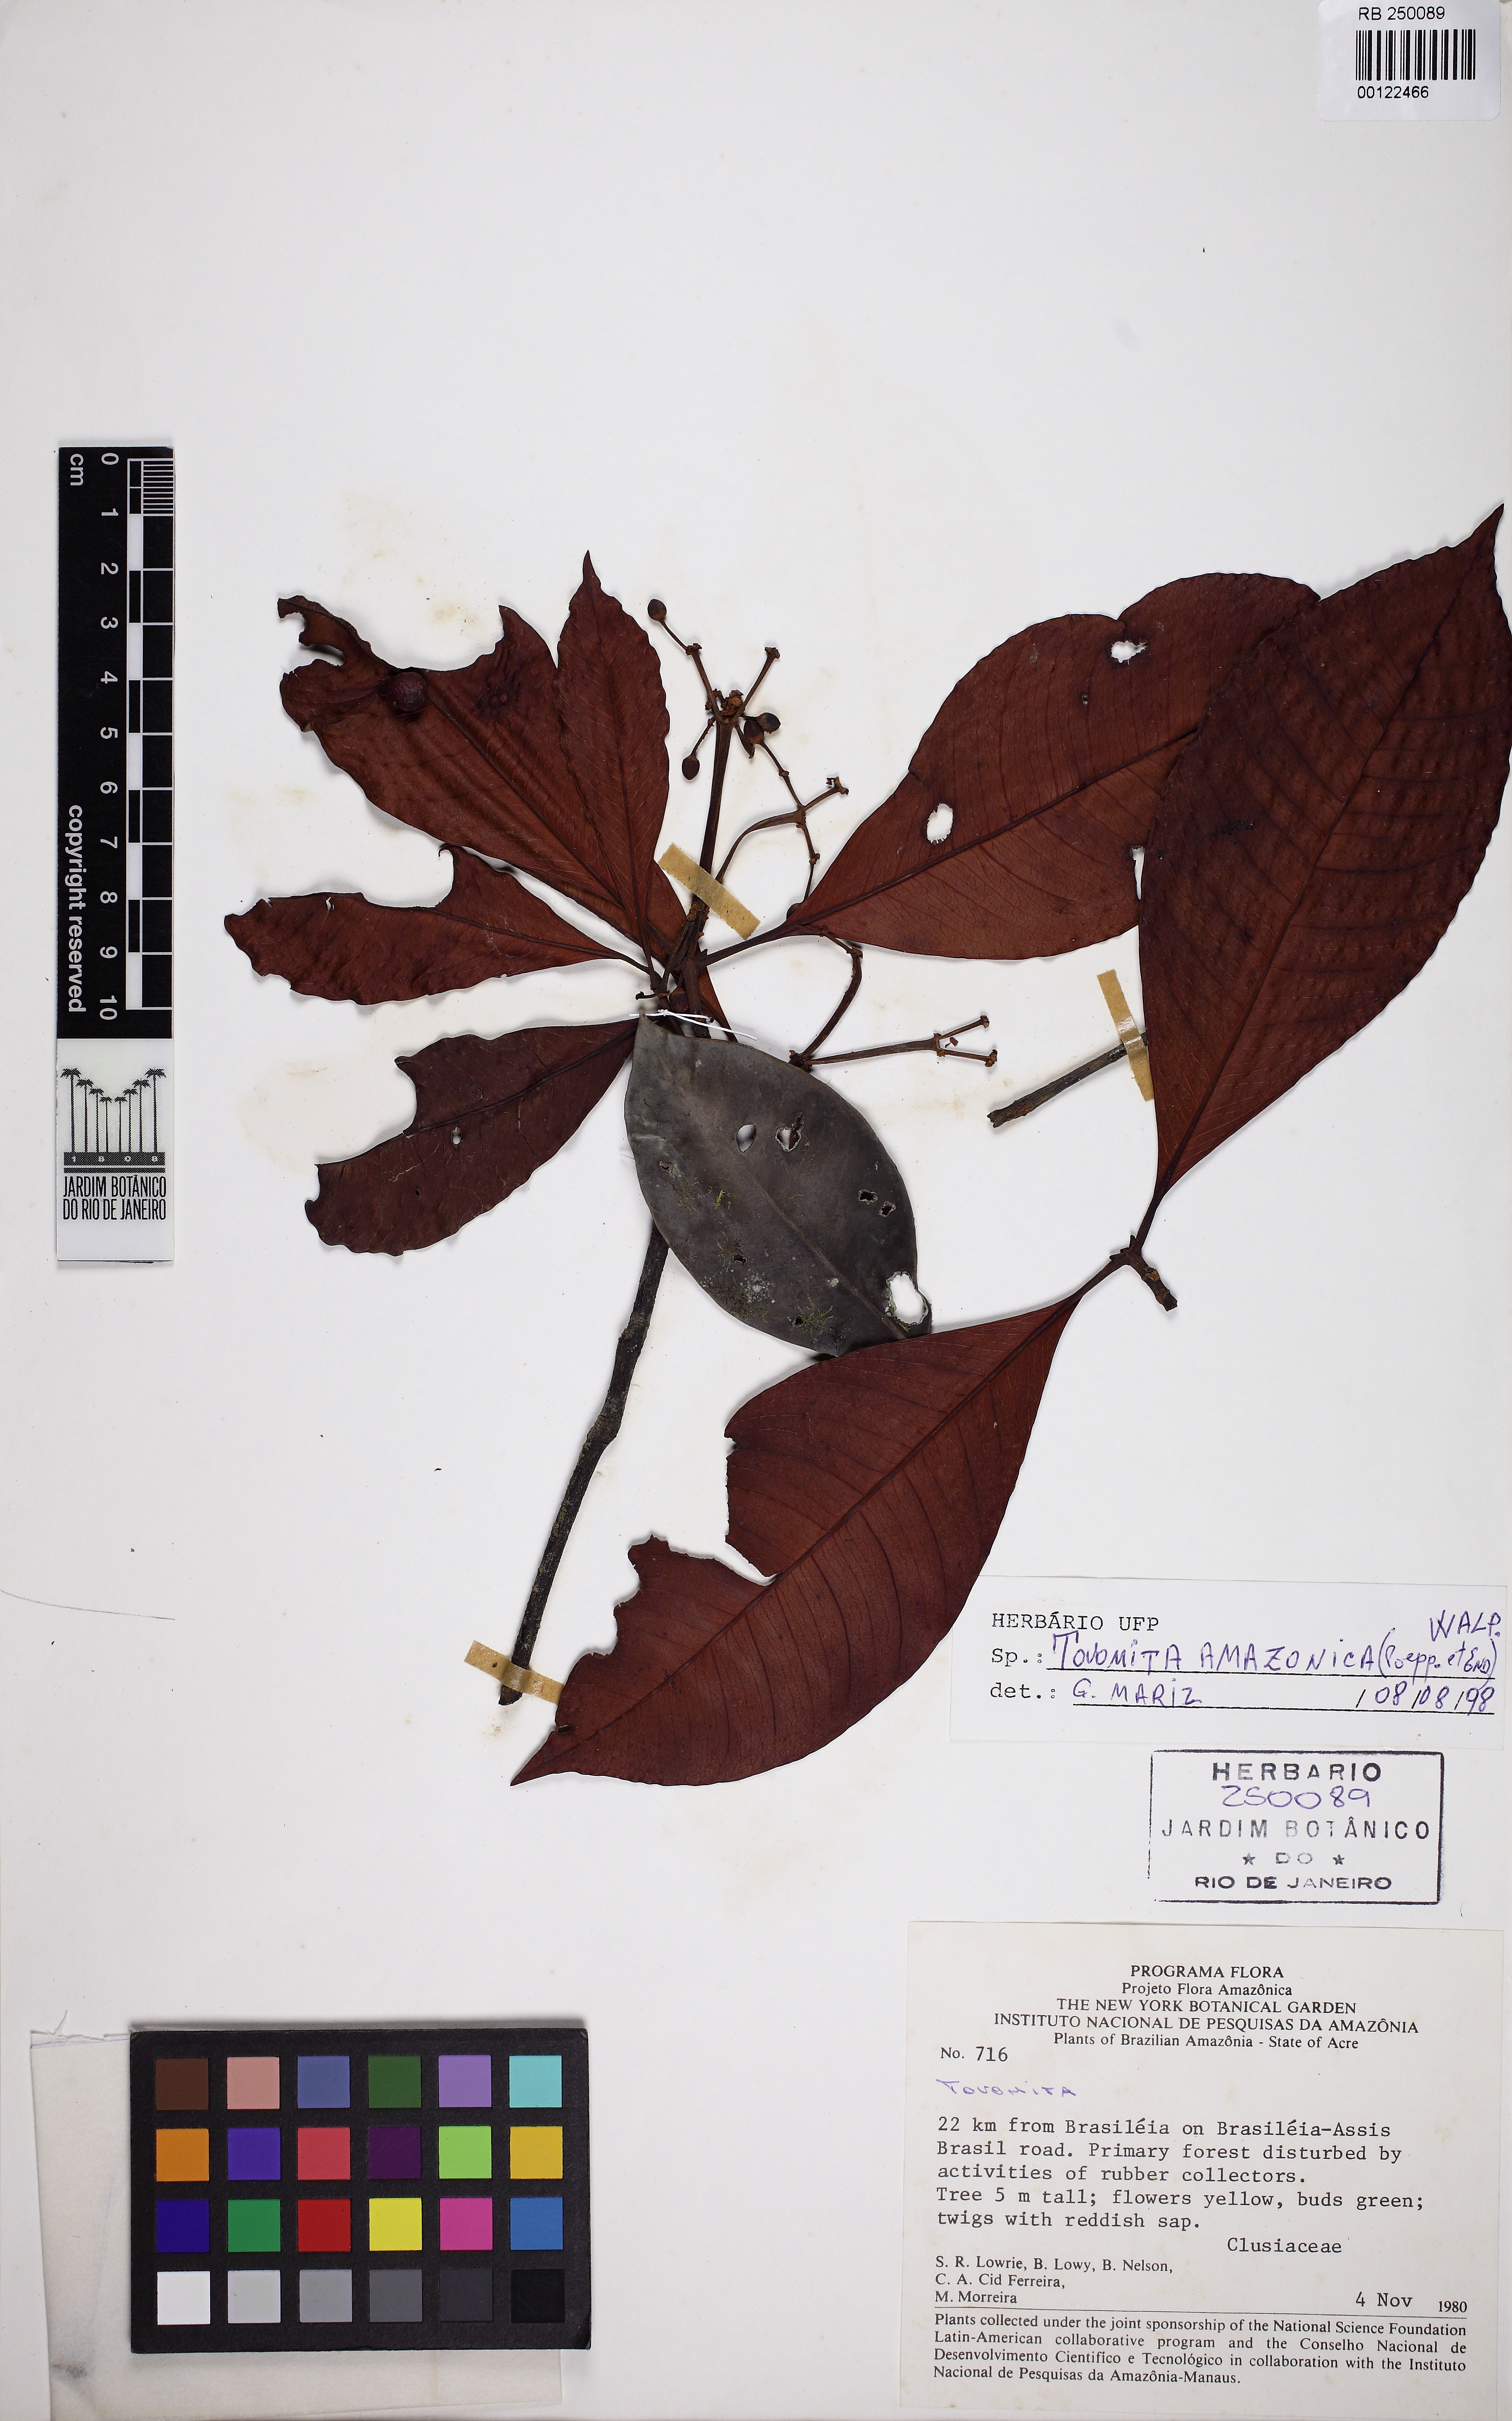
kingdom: Plantae
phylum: Tracheophyta
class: Magnoliopsida
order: Malpighiales
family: Clusiaceae
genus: Tovomita
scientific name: Tovomita amazonica
